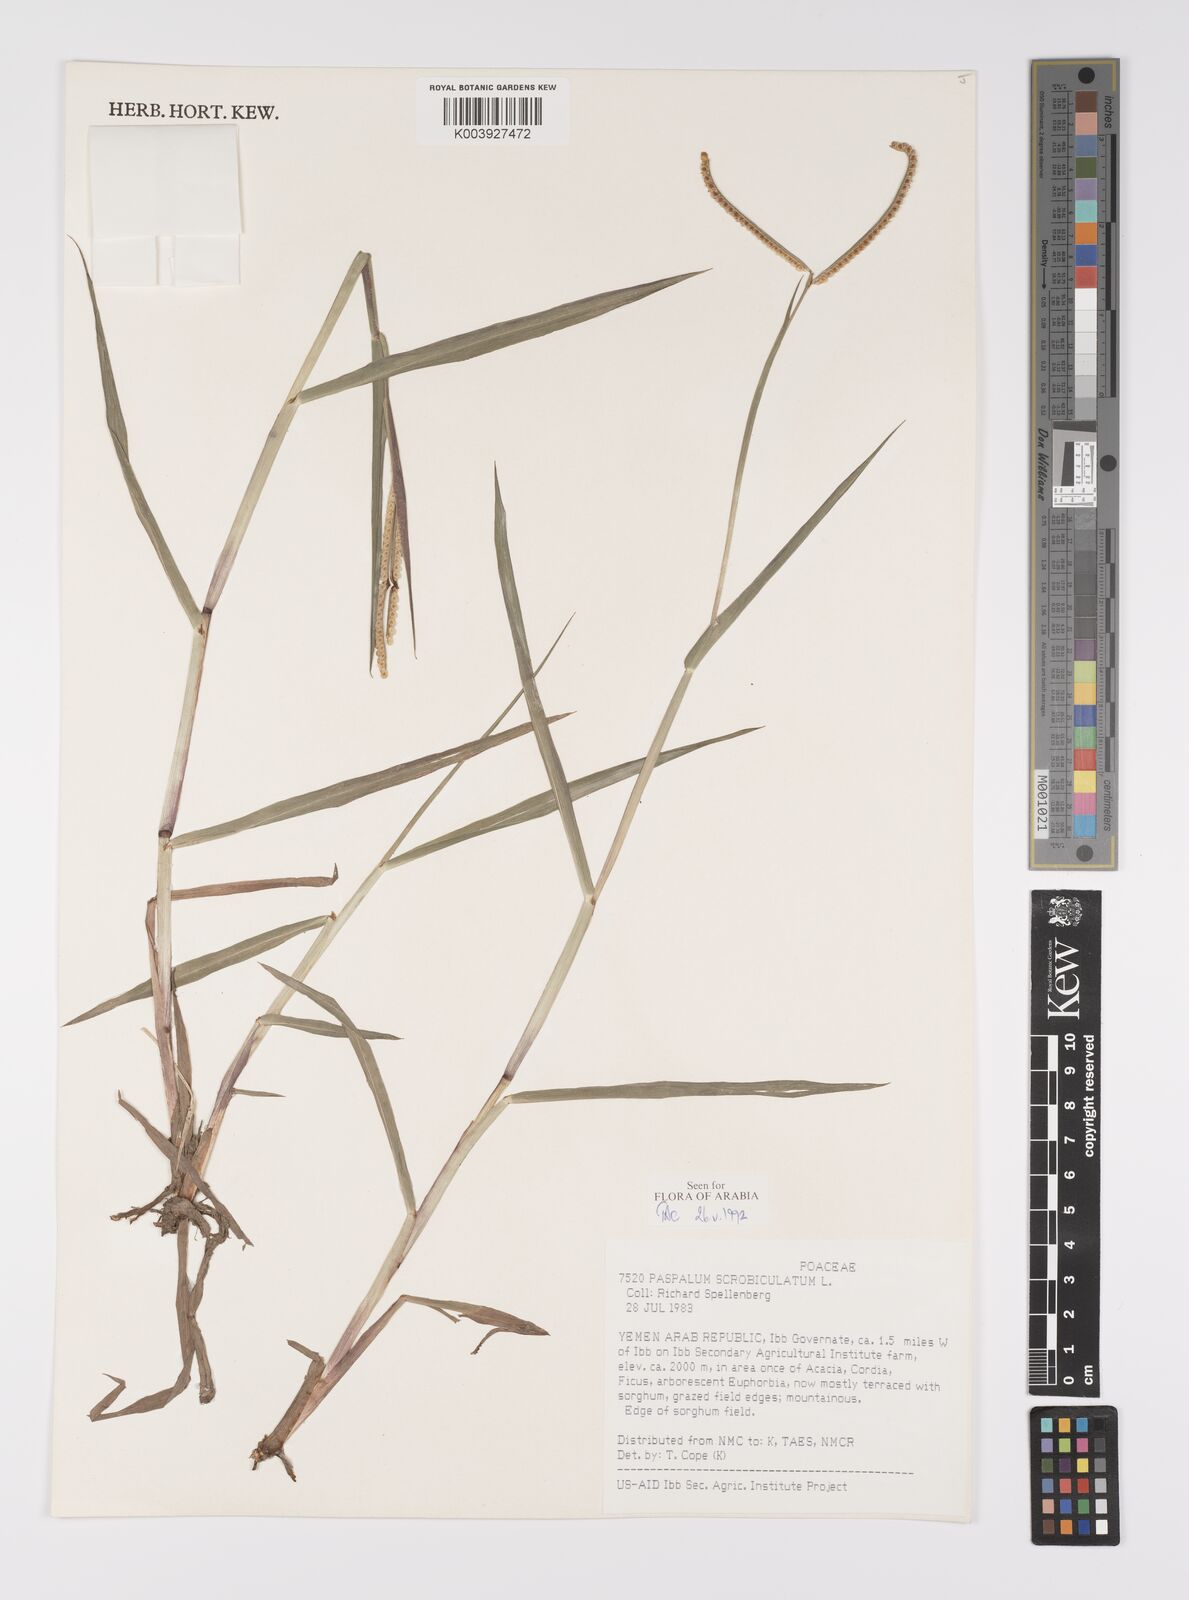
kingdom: Plantae
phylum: Tracheophyta
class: Liliopsida
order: Poales
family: Poaceae
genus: Paspalum
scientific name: Paspalum scrobiculatum
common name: Kodo millet
